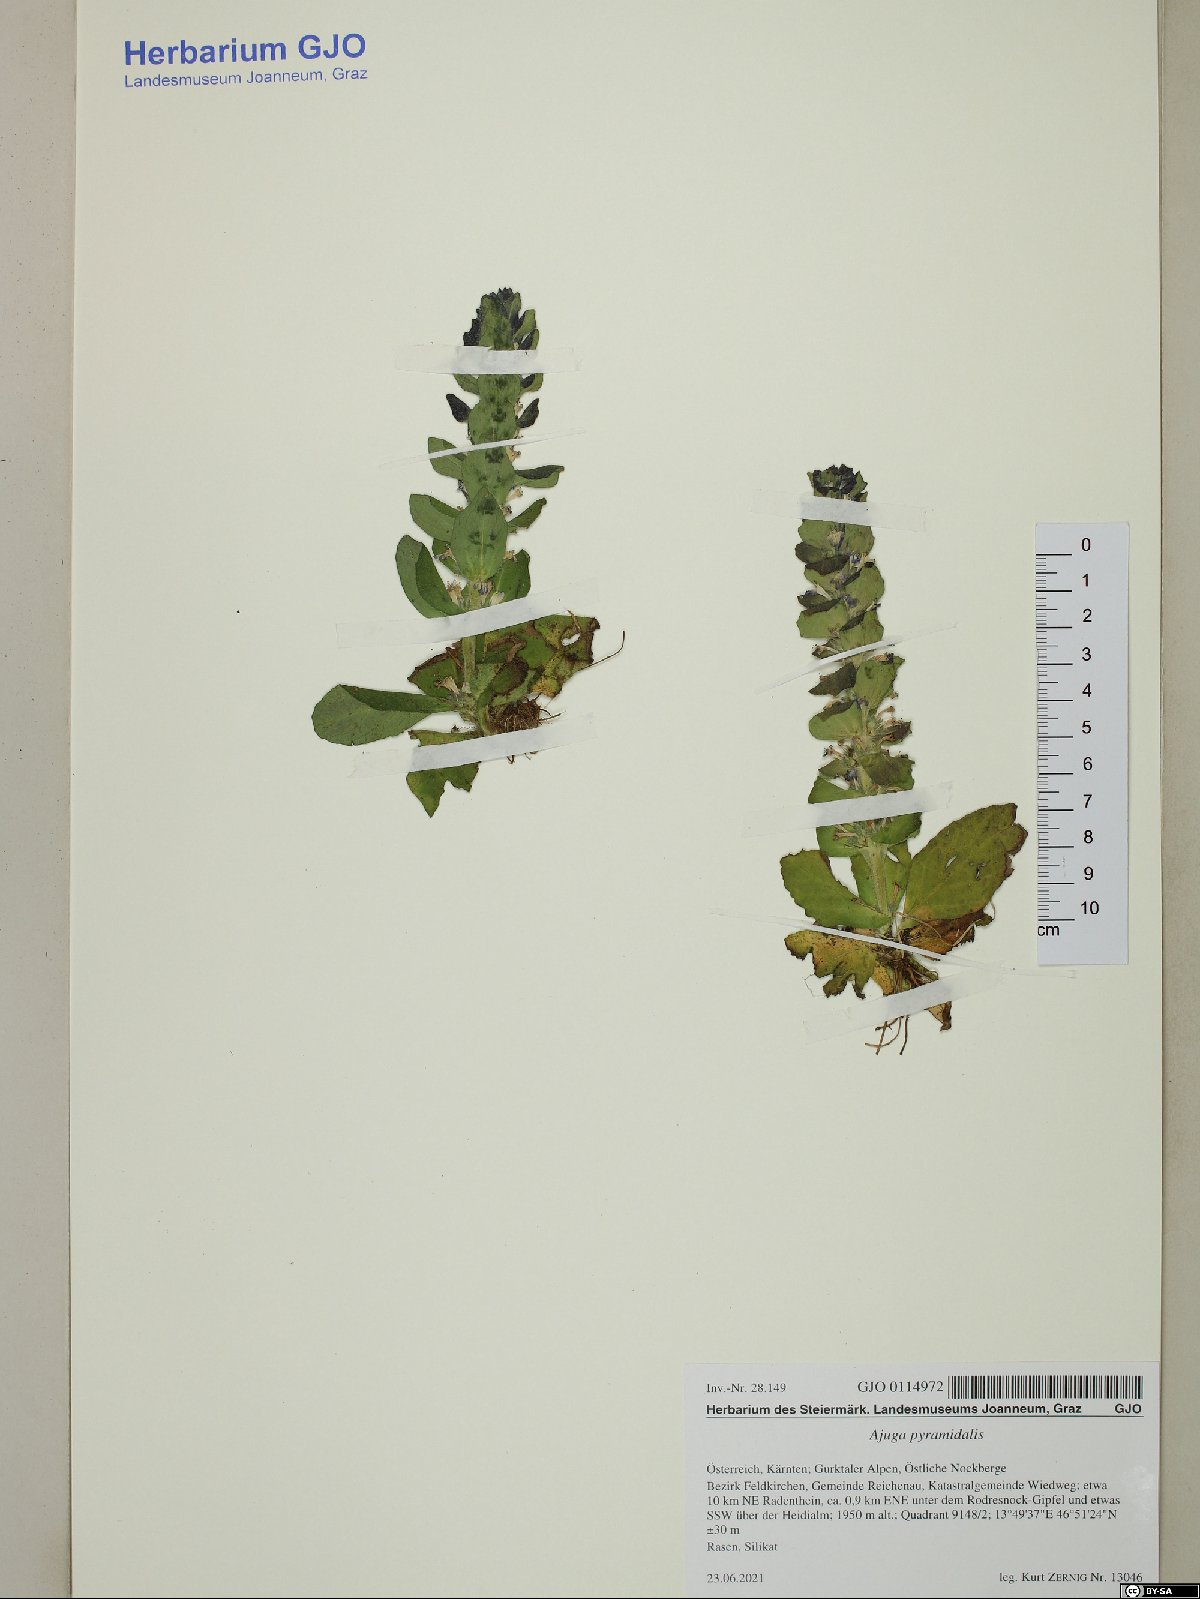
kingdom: Plantae
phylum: Tracheophyta
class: Magnoliopsida
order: Lamiales
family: Lamiaceae
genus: Ajuga
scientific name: Ajuga pyramidalis
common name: Pyramid bugle
